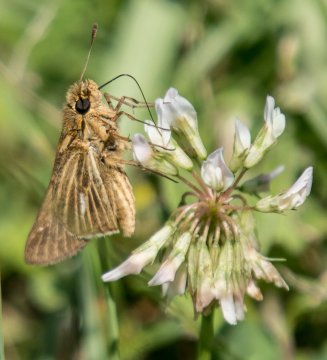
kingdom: Animalia
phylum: Arthropoda
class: Insecta
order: Lepidoptera
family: Hesperiidae
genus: Panoquina
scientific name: Panoquina panoquin
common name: Salt Marsh Skipper
